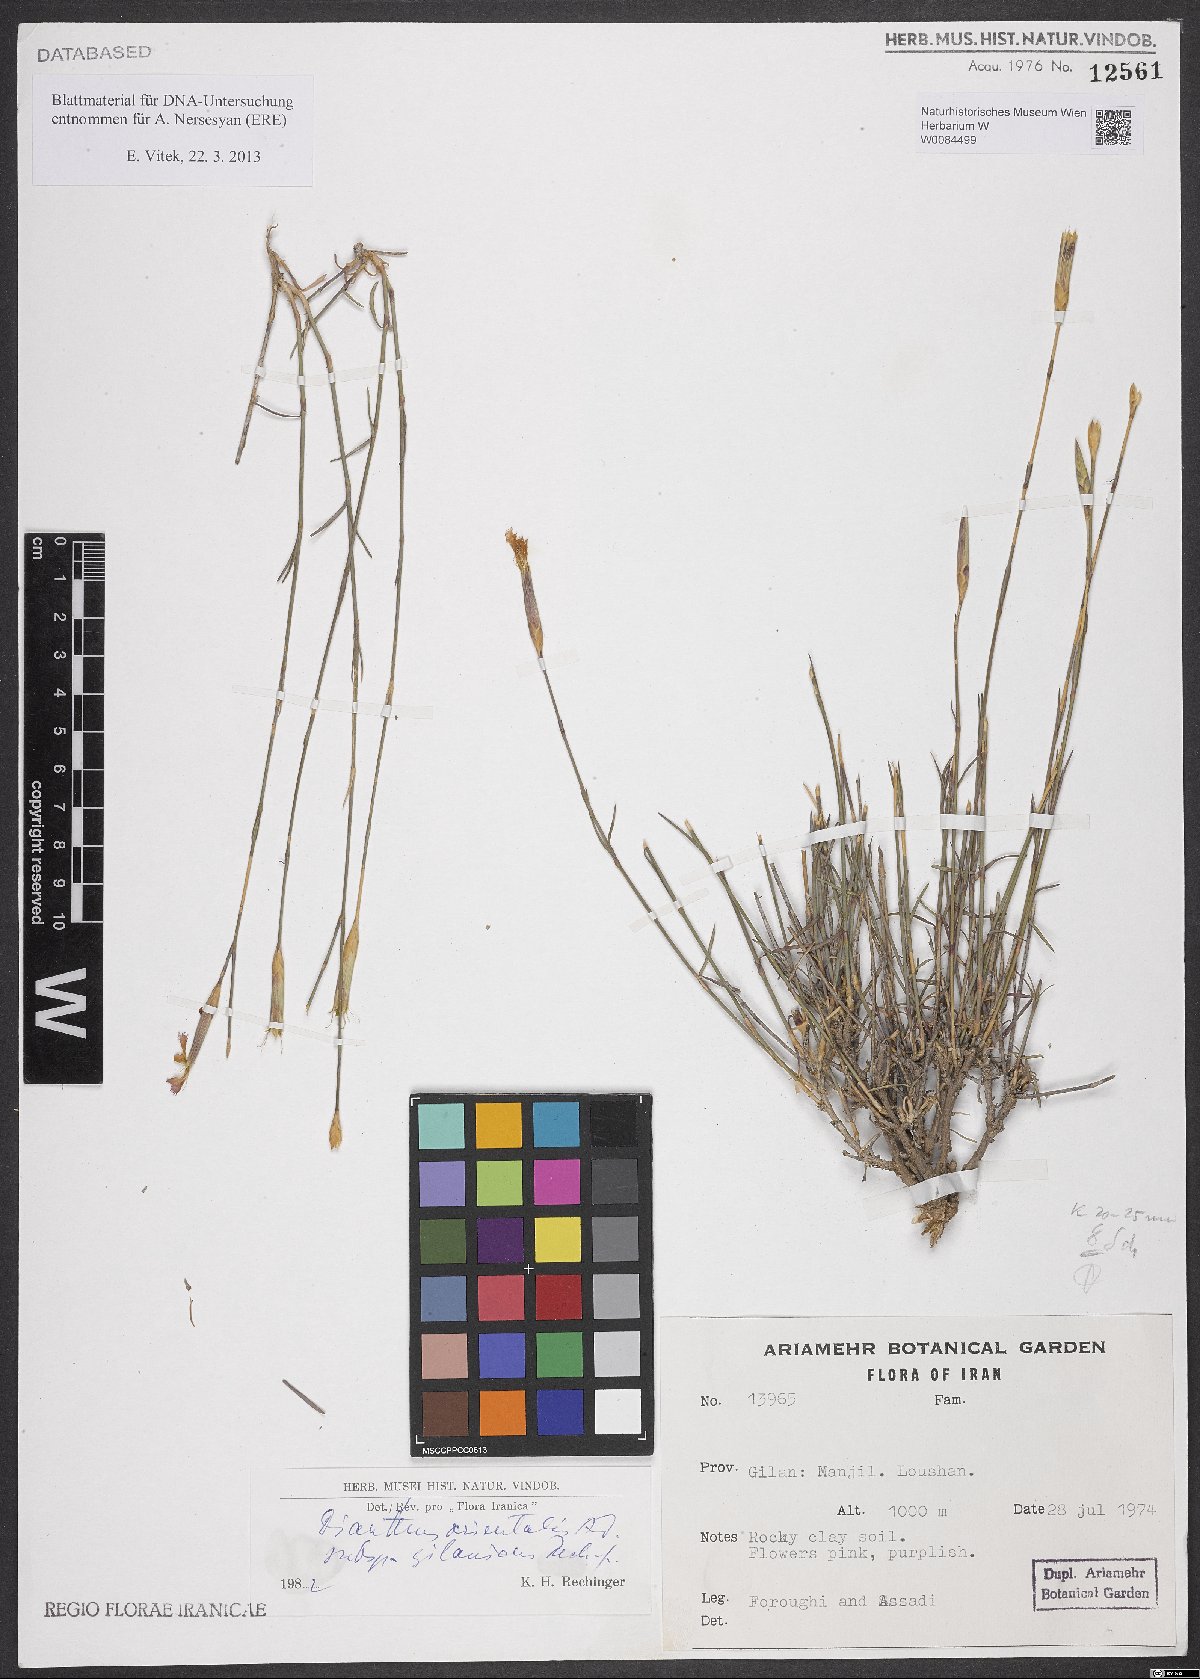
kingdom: Plantae
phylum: Tracheophyta
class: Magnoliopsida
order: Caryophyllales
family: Caryophyllaceae
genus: Dianthus
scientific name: Dianthus orientalis
